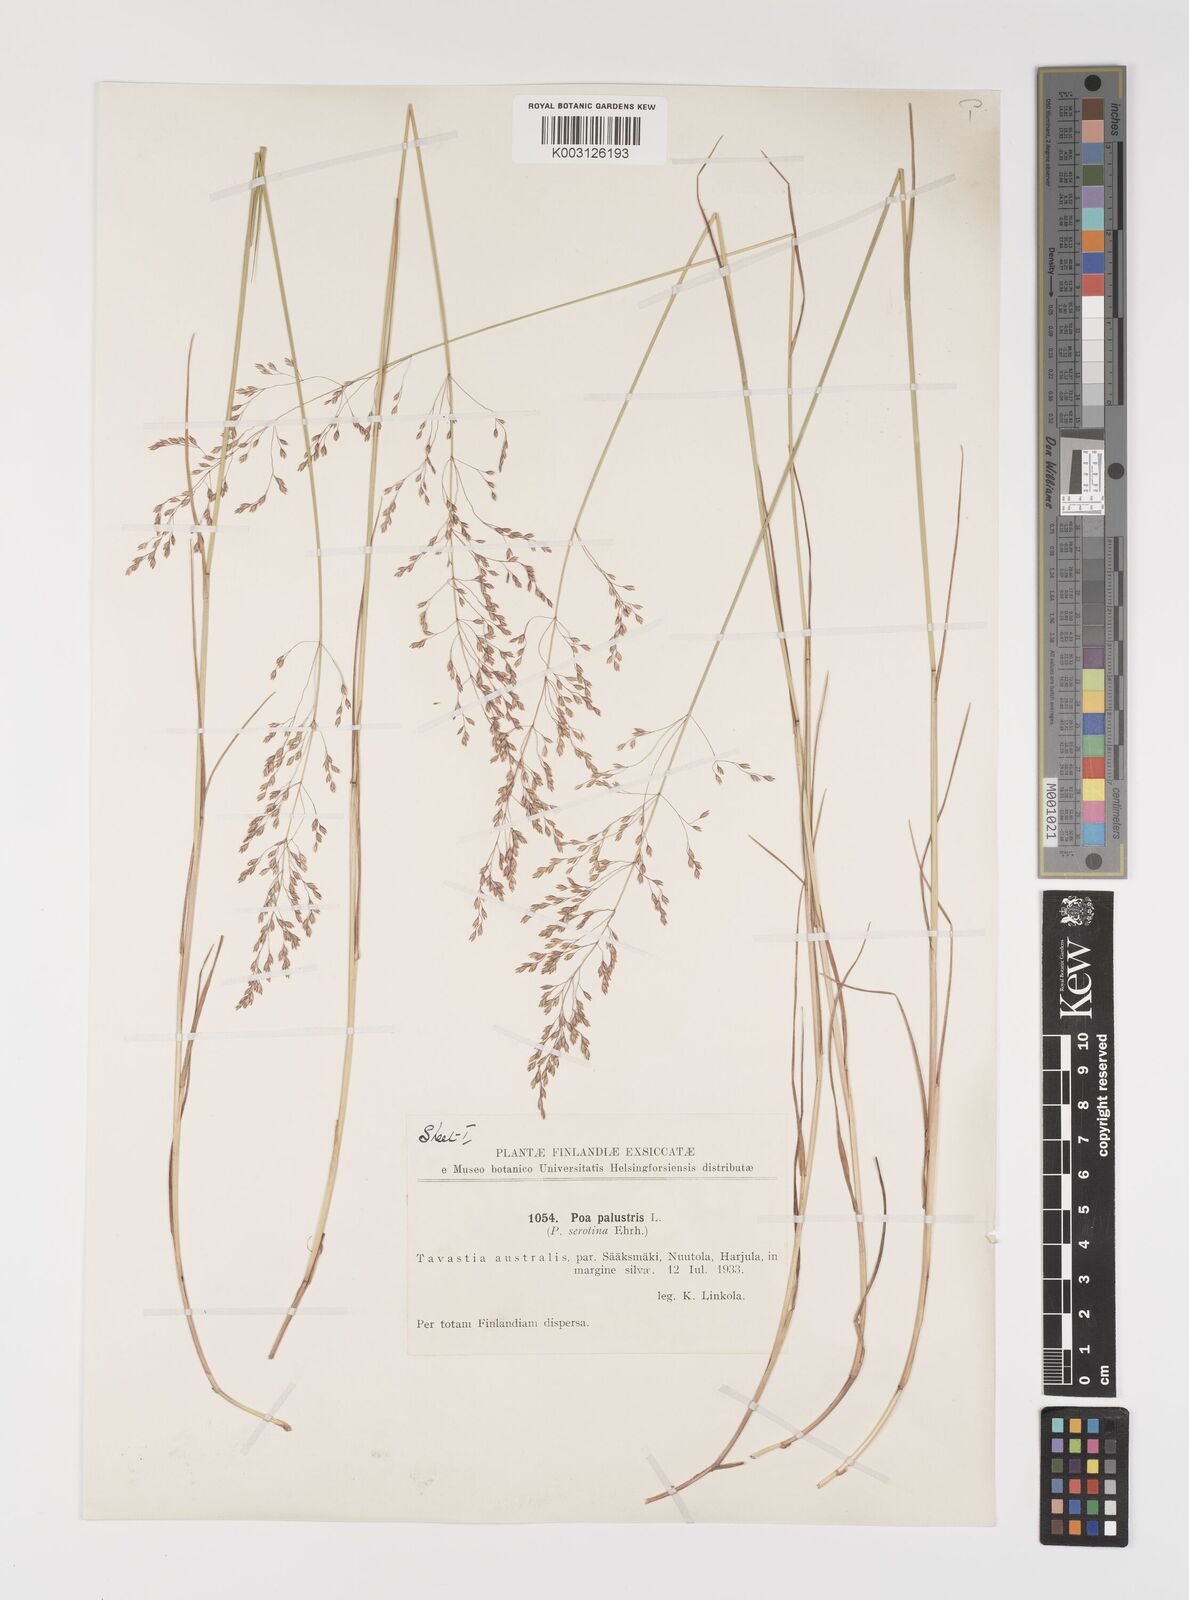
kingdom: Plantae
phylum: Tracheophyta
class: Liliopsida
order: Poales
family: Poaceae
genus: Poa
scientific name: Poa palustris
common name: Swamp meadow-grass
